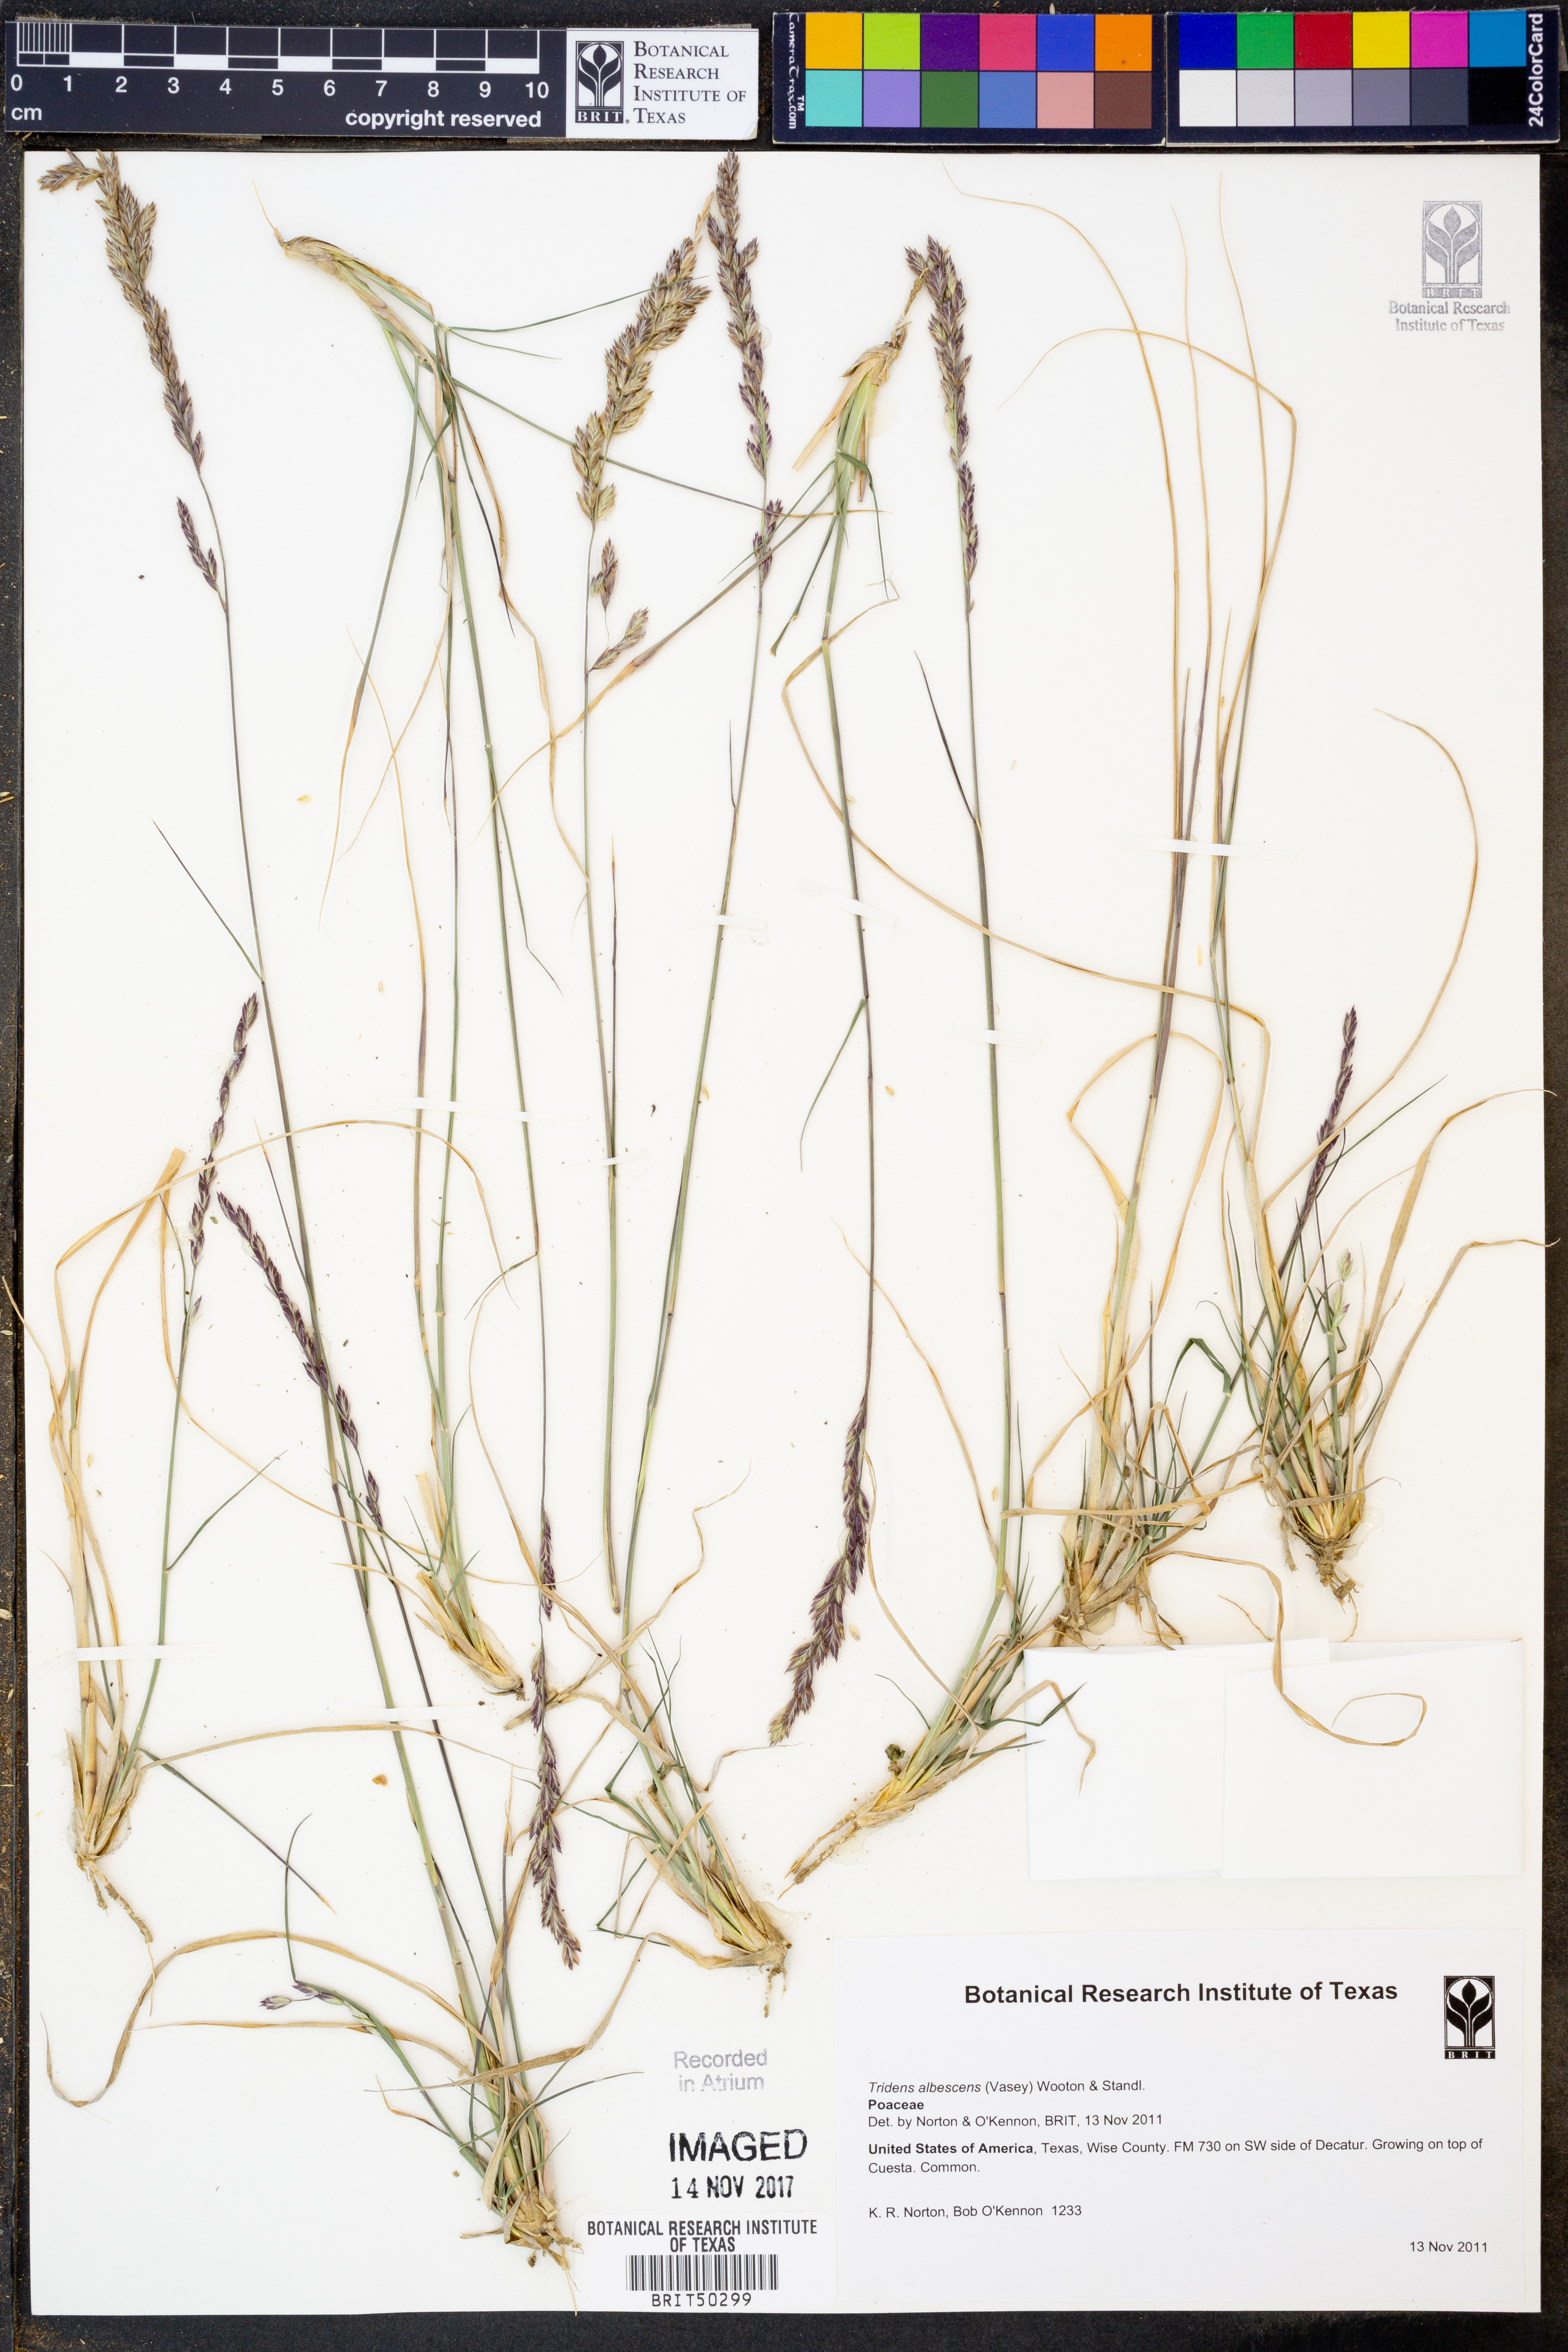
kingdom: Plantae
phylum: Tracheophyta
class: Liliopsida
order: Poales
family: Poaceae
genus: Tridens
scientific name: Tridens albescens
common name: White tridens
